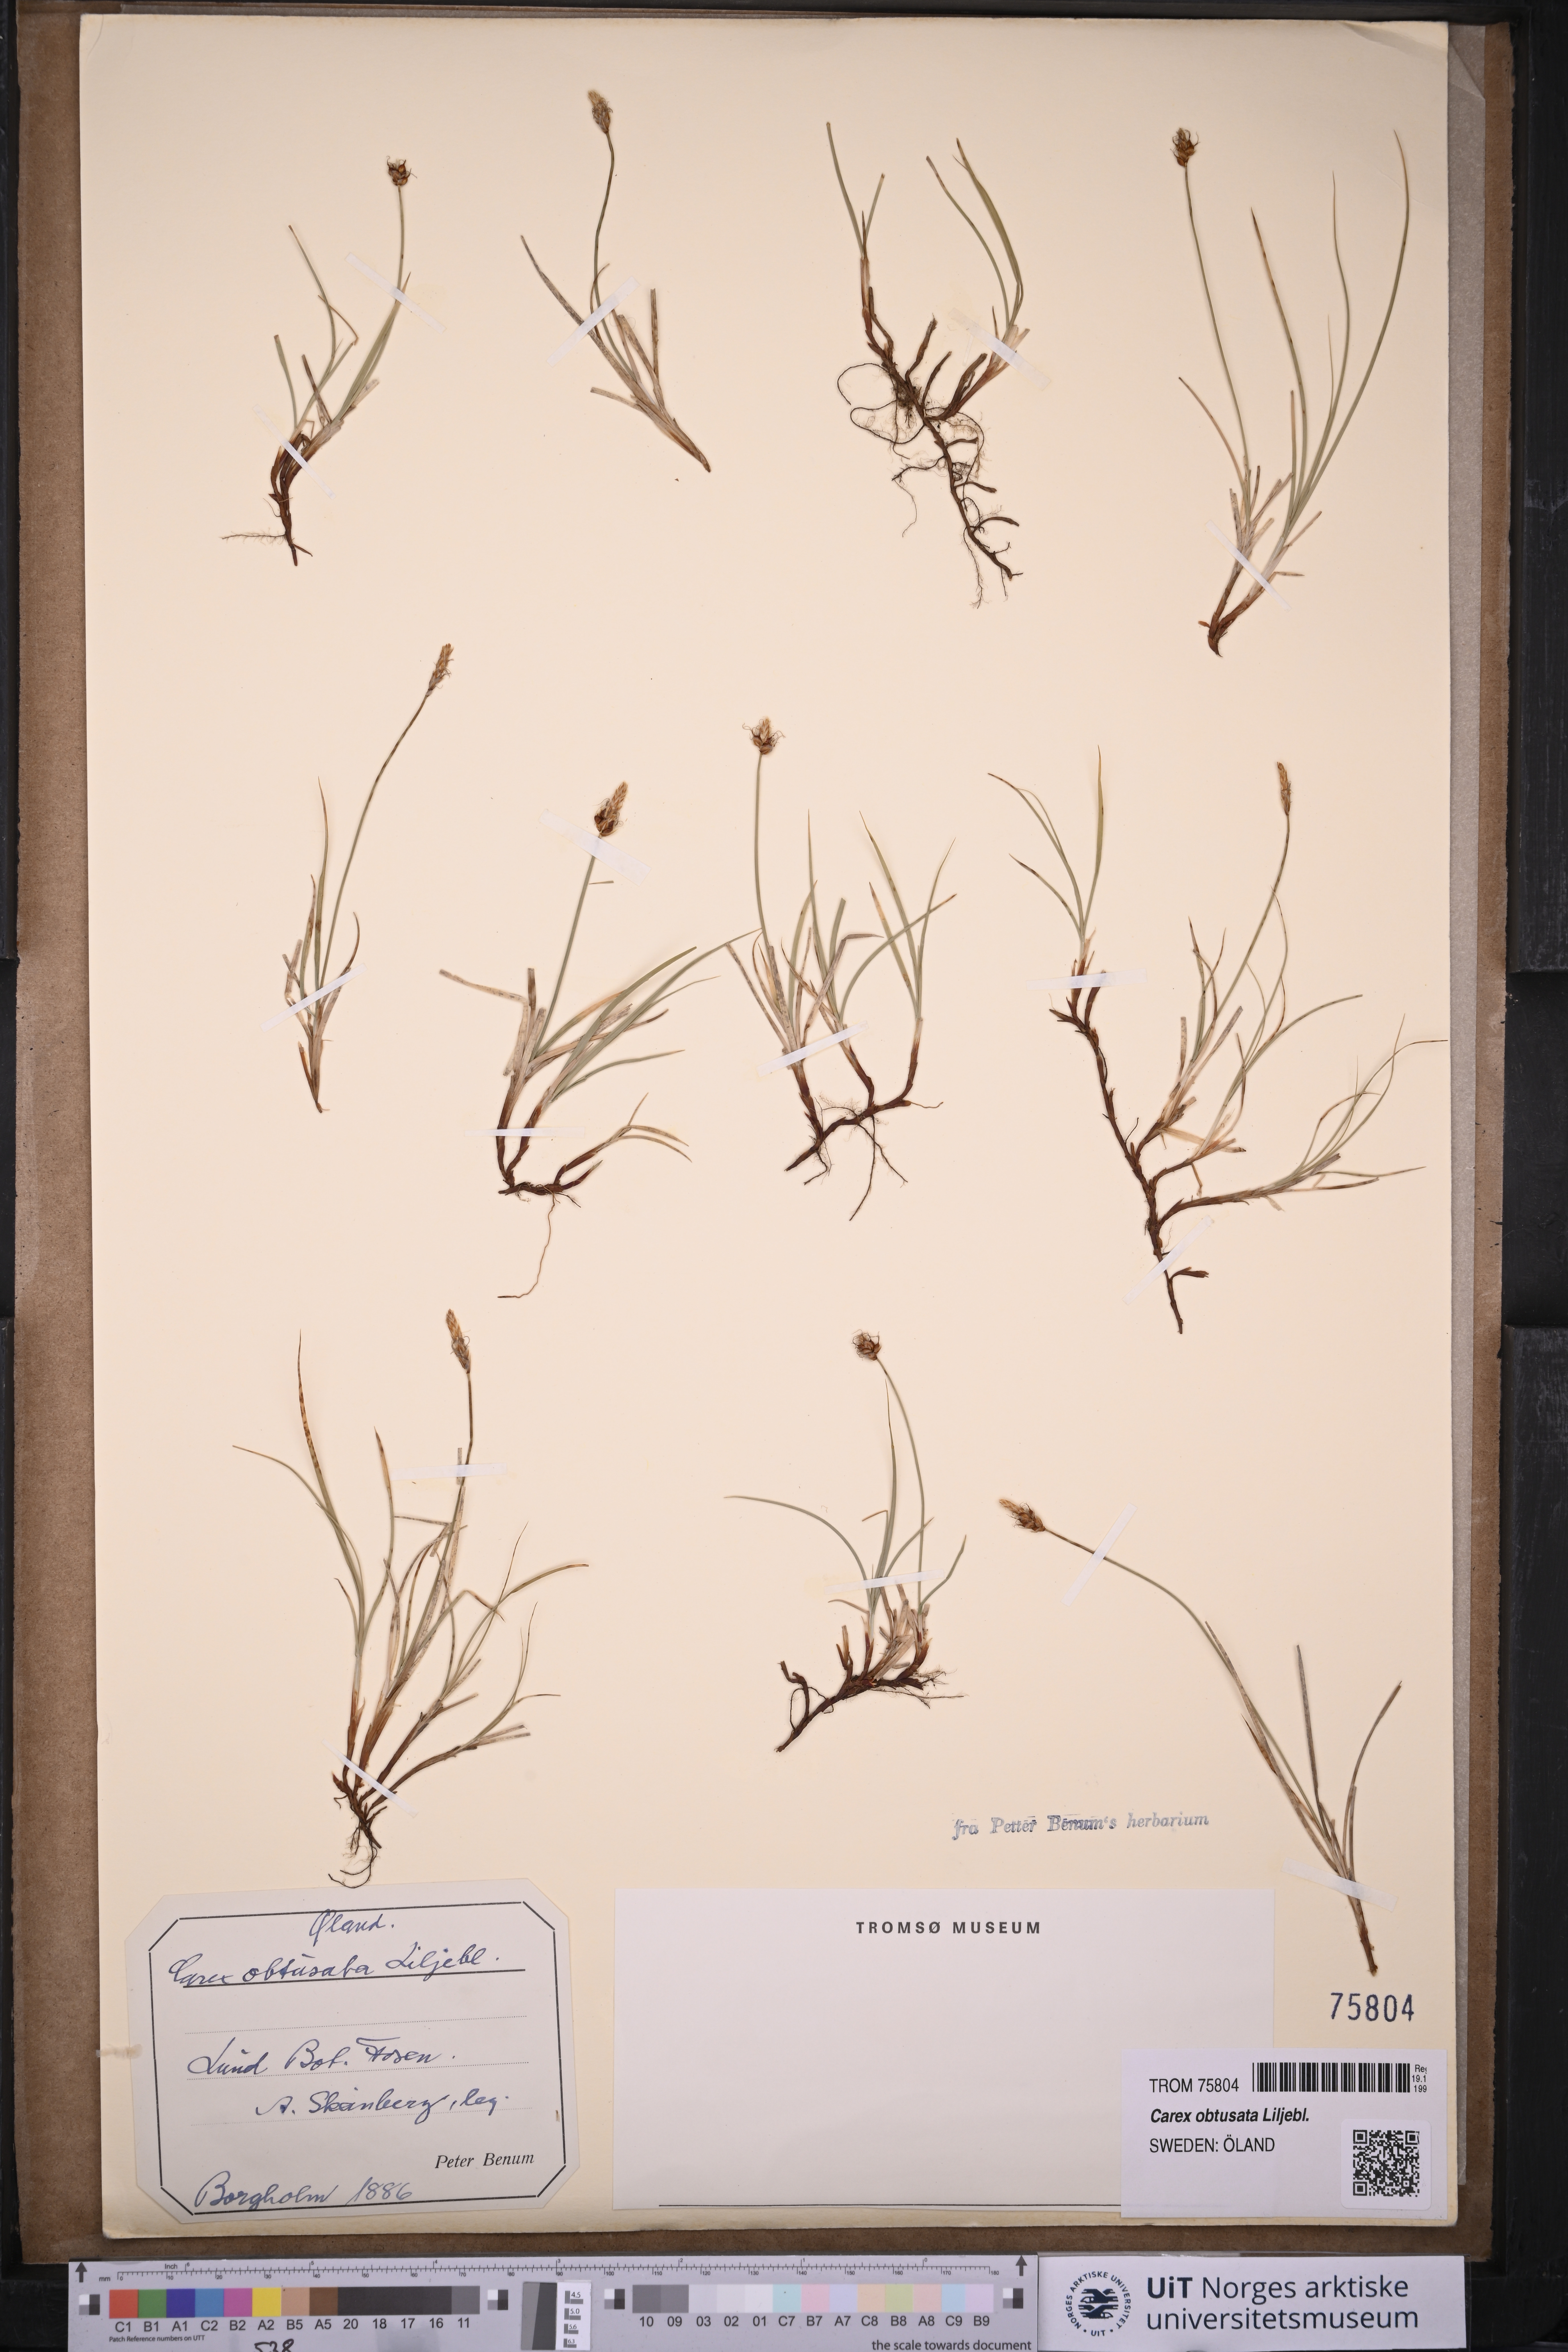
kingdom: Plantae
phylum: Tracheophyta
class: Liliopsida
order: Poales
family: Cyperaceae
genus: Carex
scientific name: Carex obtusata
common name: Blunt sedge
